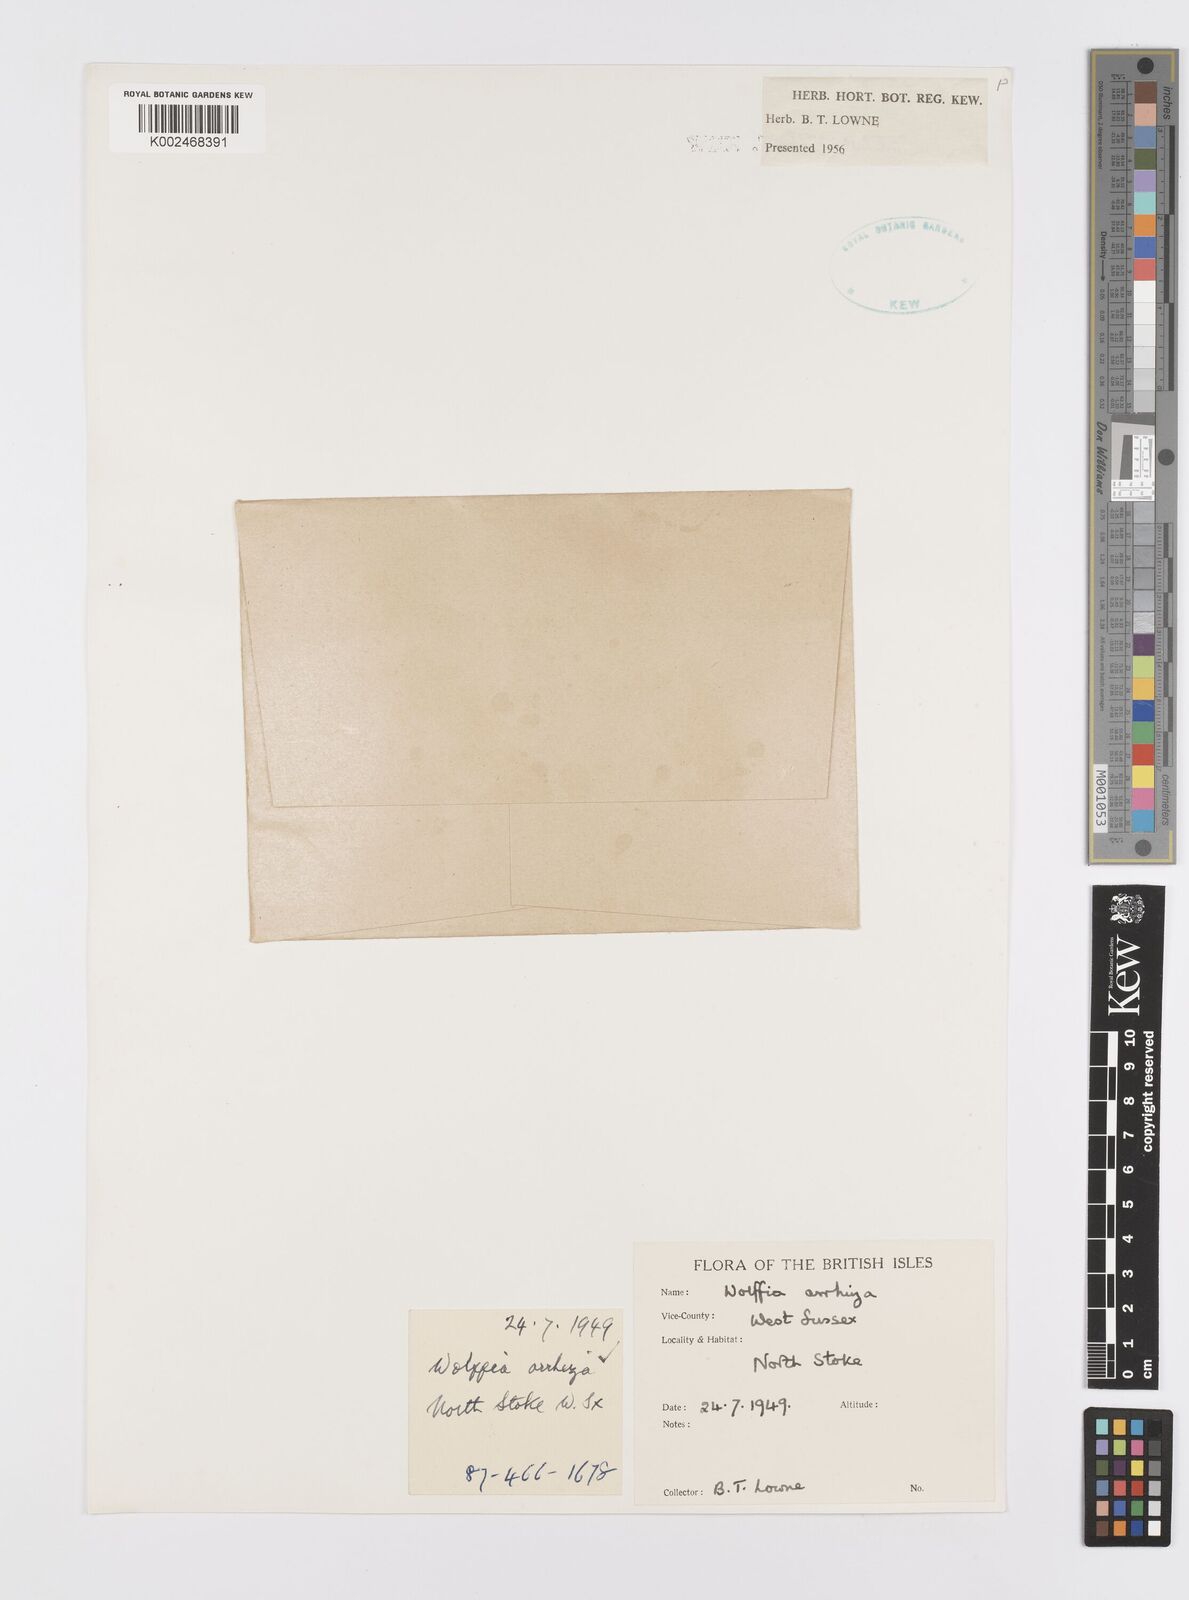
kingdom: Plantae
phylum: Tracheophyta
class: Liliopsida
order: Alismatales
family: Araceae
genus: Wolffia
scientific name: Wolffia arrhiza
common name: Rootless duckweed
